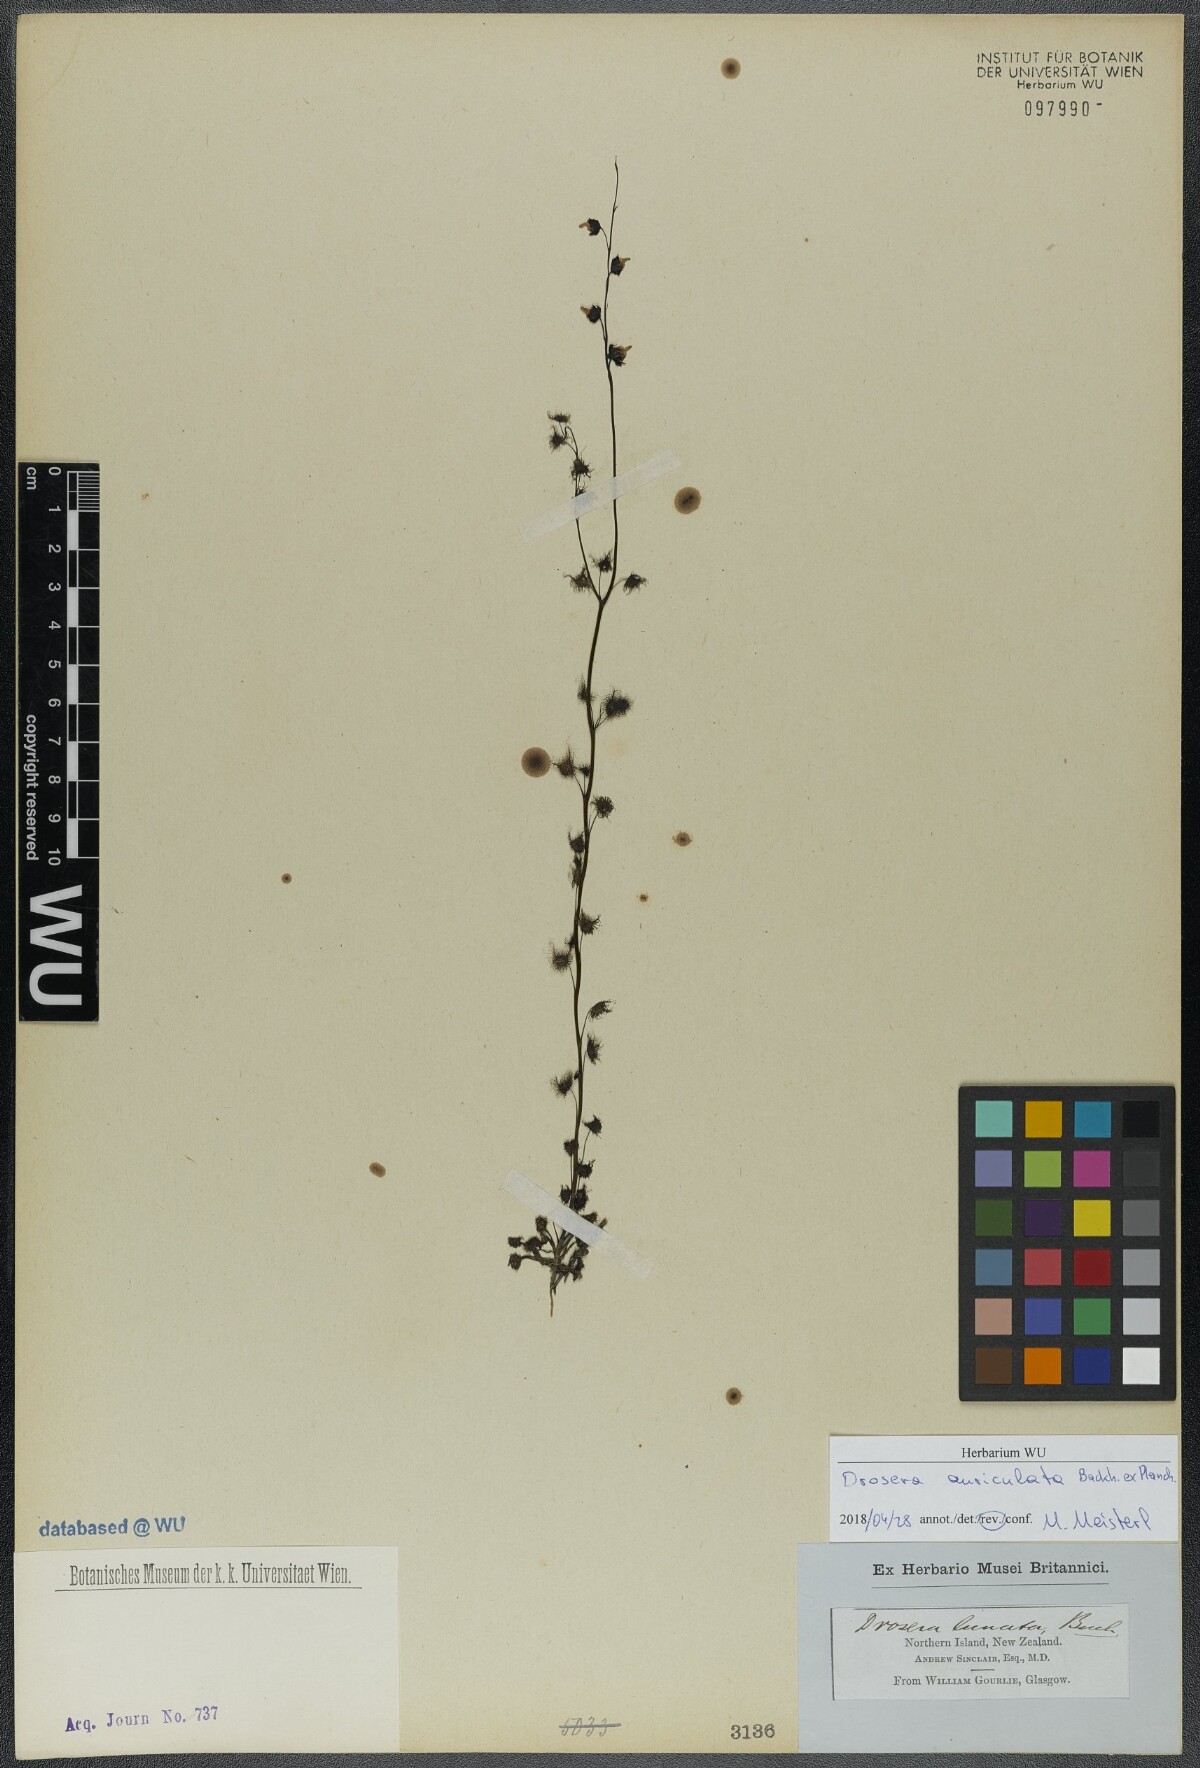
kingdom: Plantae
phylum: Tracheophyta
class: Magnoliopsida
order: Caryophyllales
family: Droseraceae
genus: Drosera
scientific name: Drosera peltata
